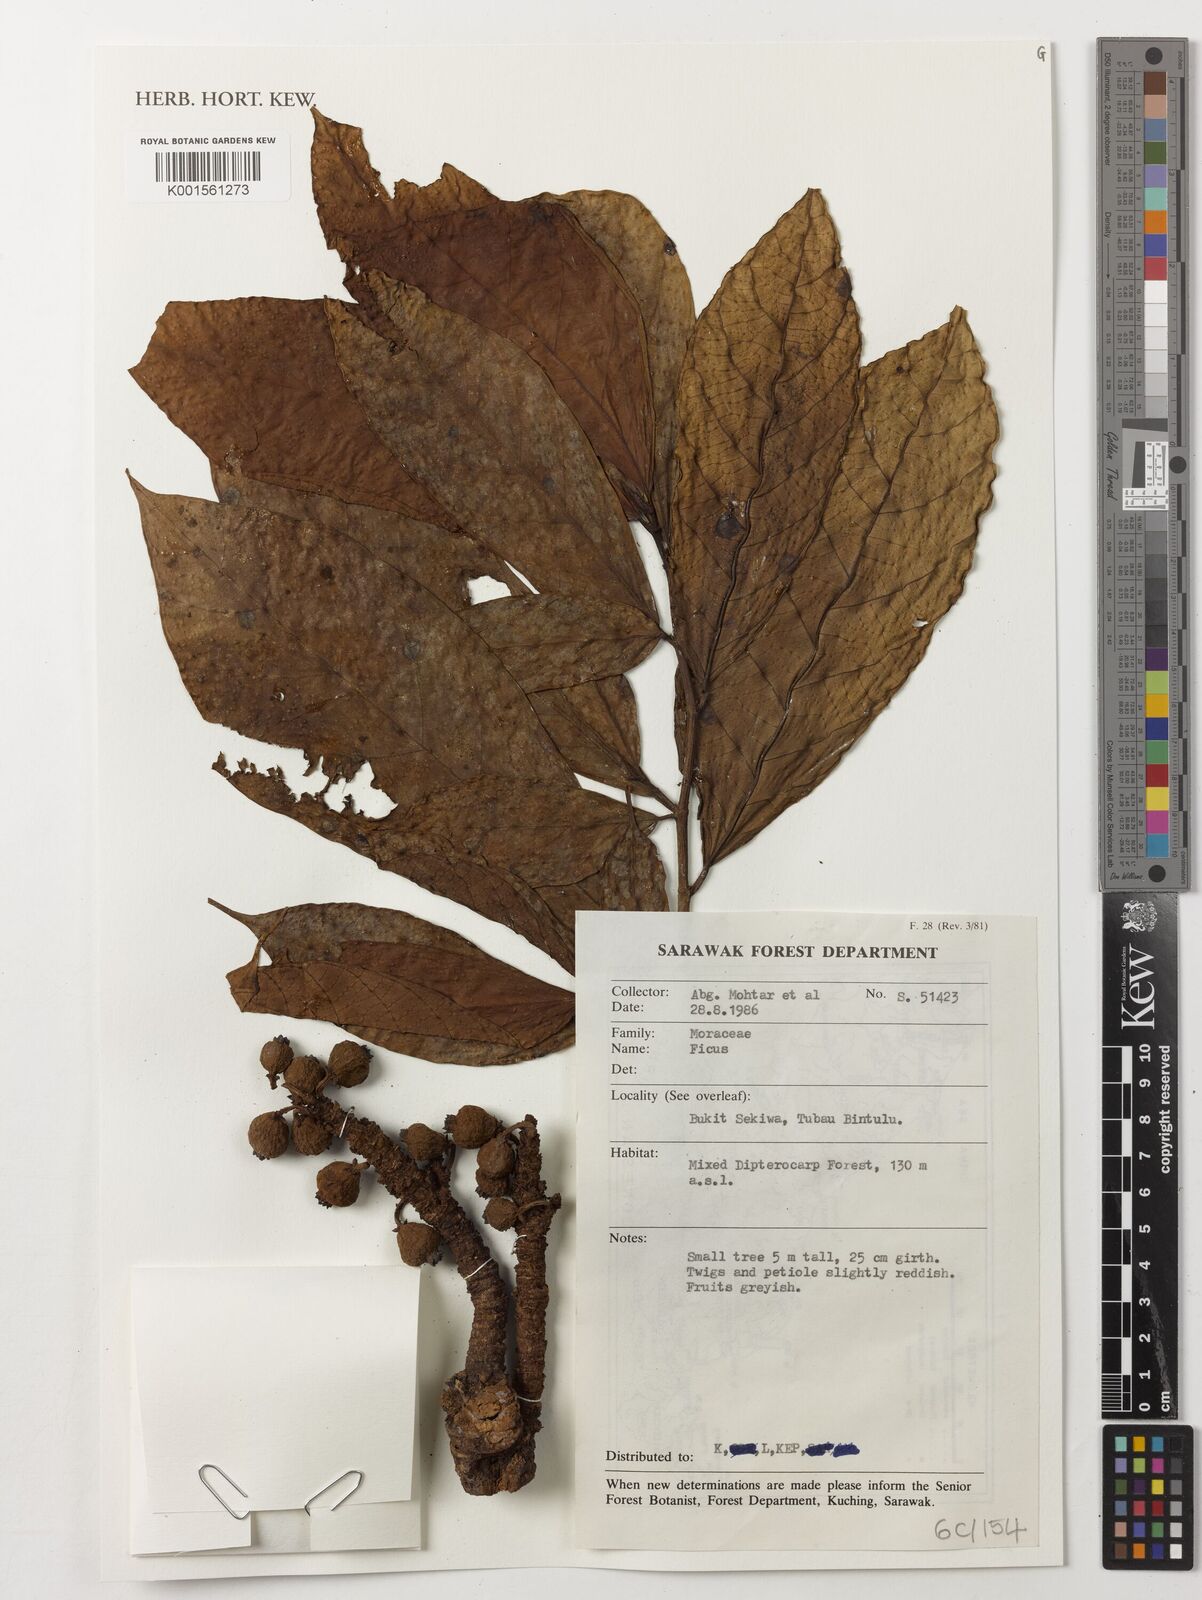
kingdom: Plantae
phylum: Tracheophyta
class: Magnoliopsida
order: Rosales
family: Moraceae
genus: Ficus
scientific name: Ficus
